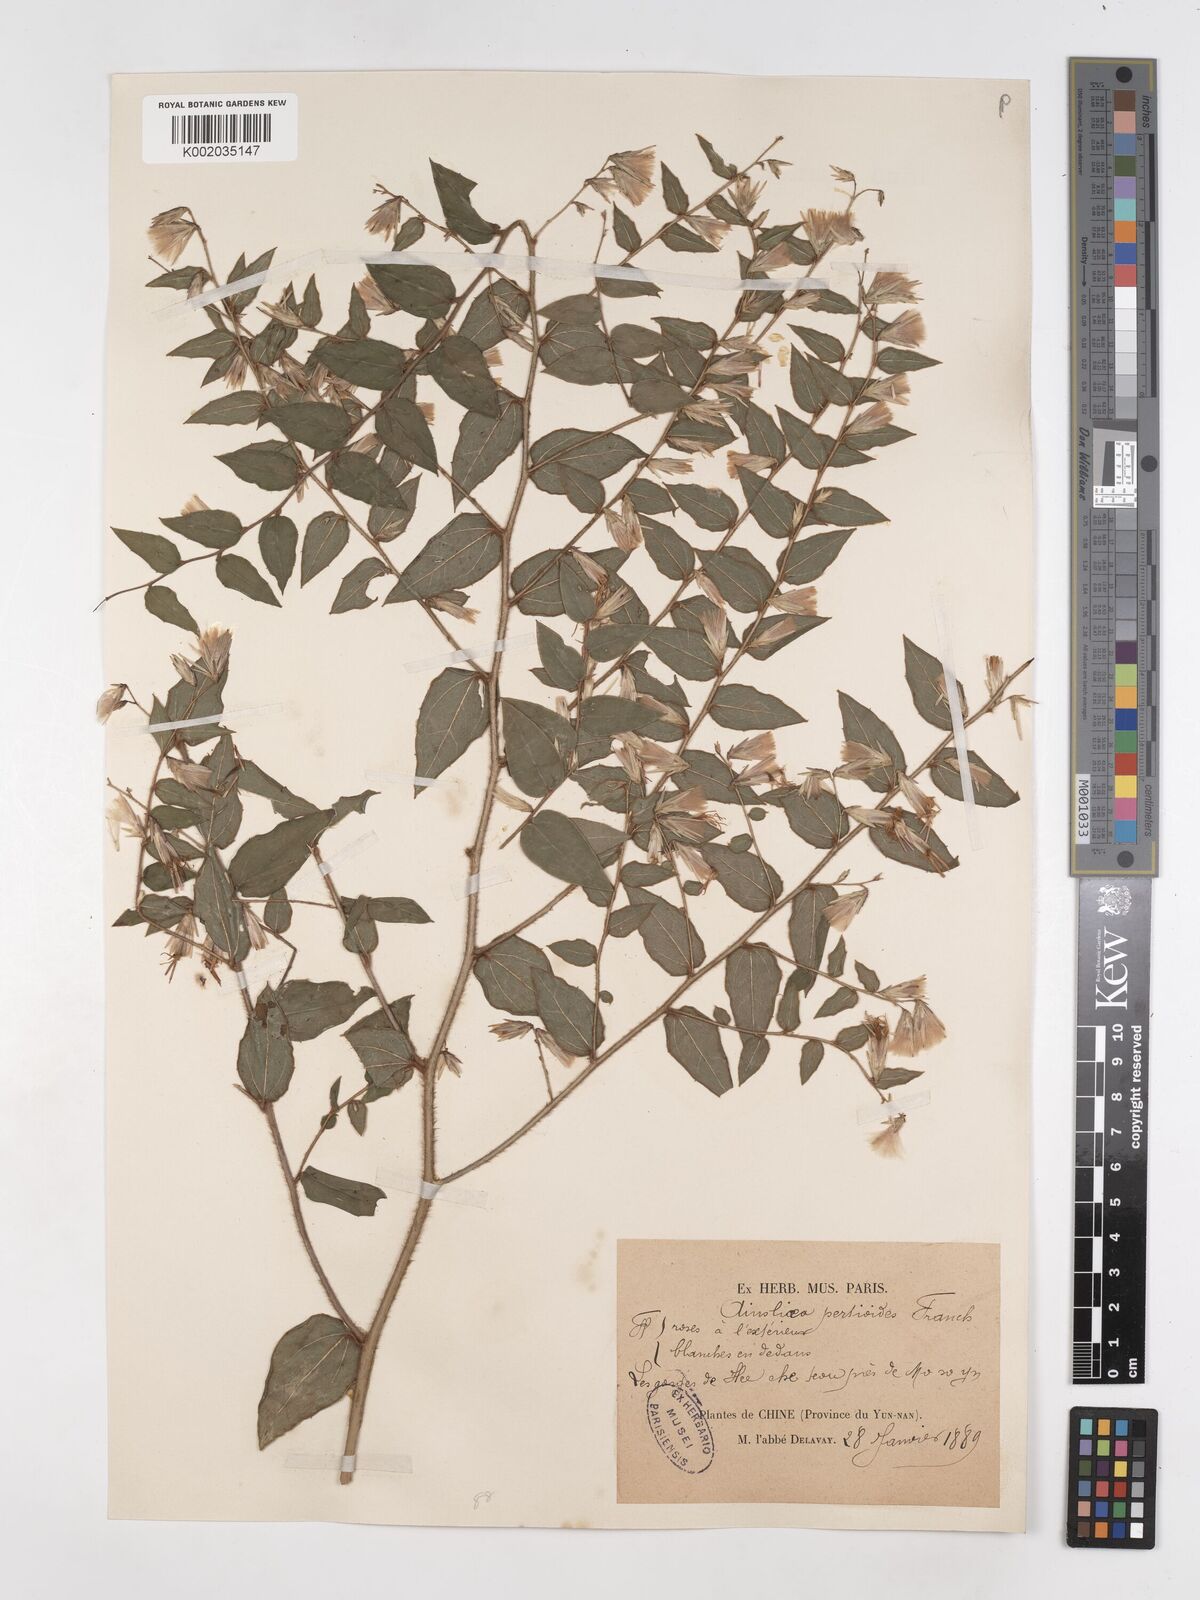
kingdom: Plantae
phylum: Tracheophyta
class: Magnoliopsida
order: Asterales
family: Asteraceae
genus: Ainsliaea
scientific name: Ainsliaea pertyoides
